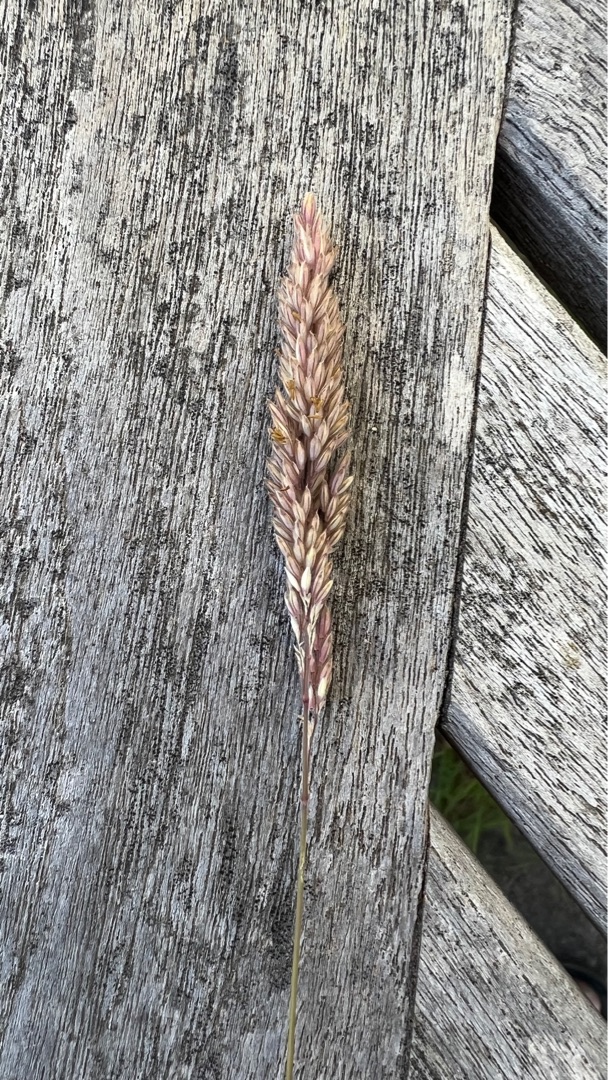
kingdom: Plantae
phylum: Tracheophyta
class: Liliopsida
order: Poales
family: Poaceae
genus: Holcus
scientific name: Holcus lanatus
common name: Fløjlsgræs
